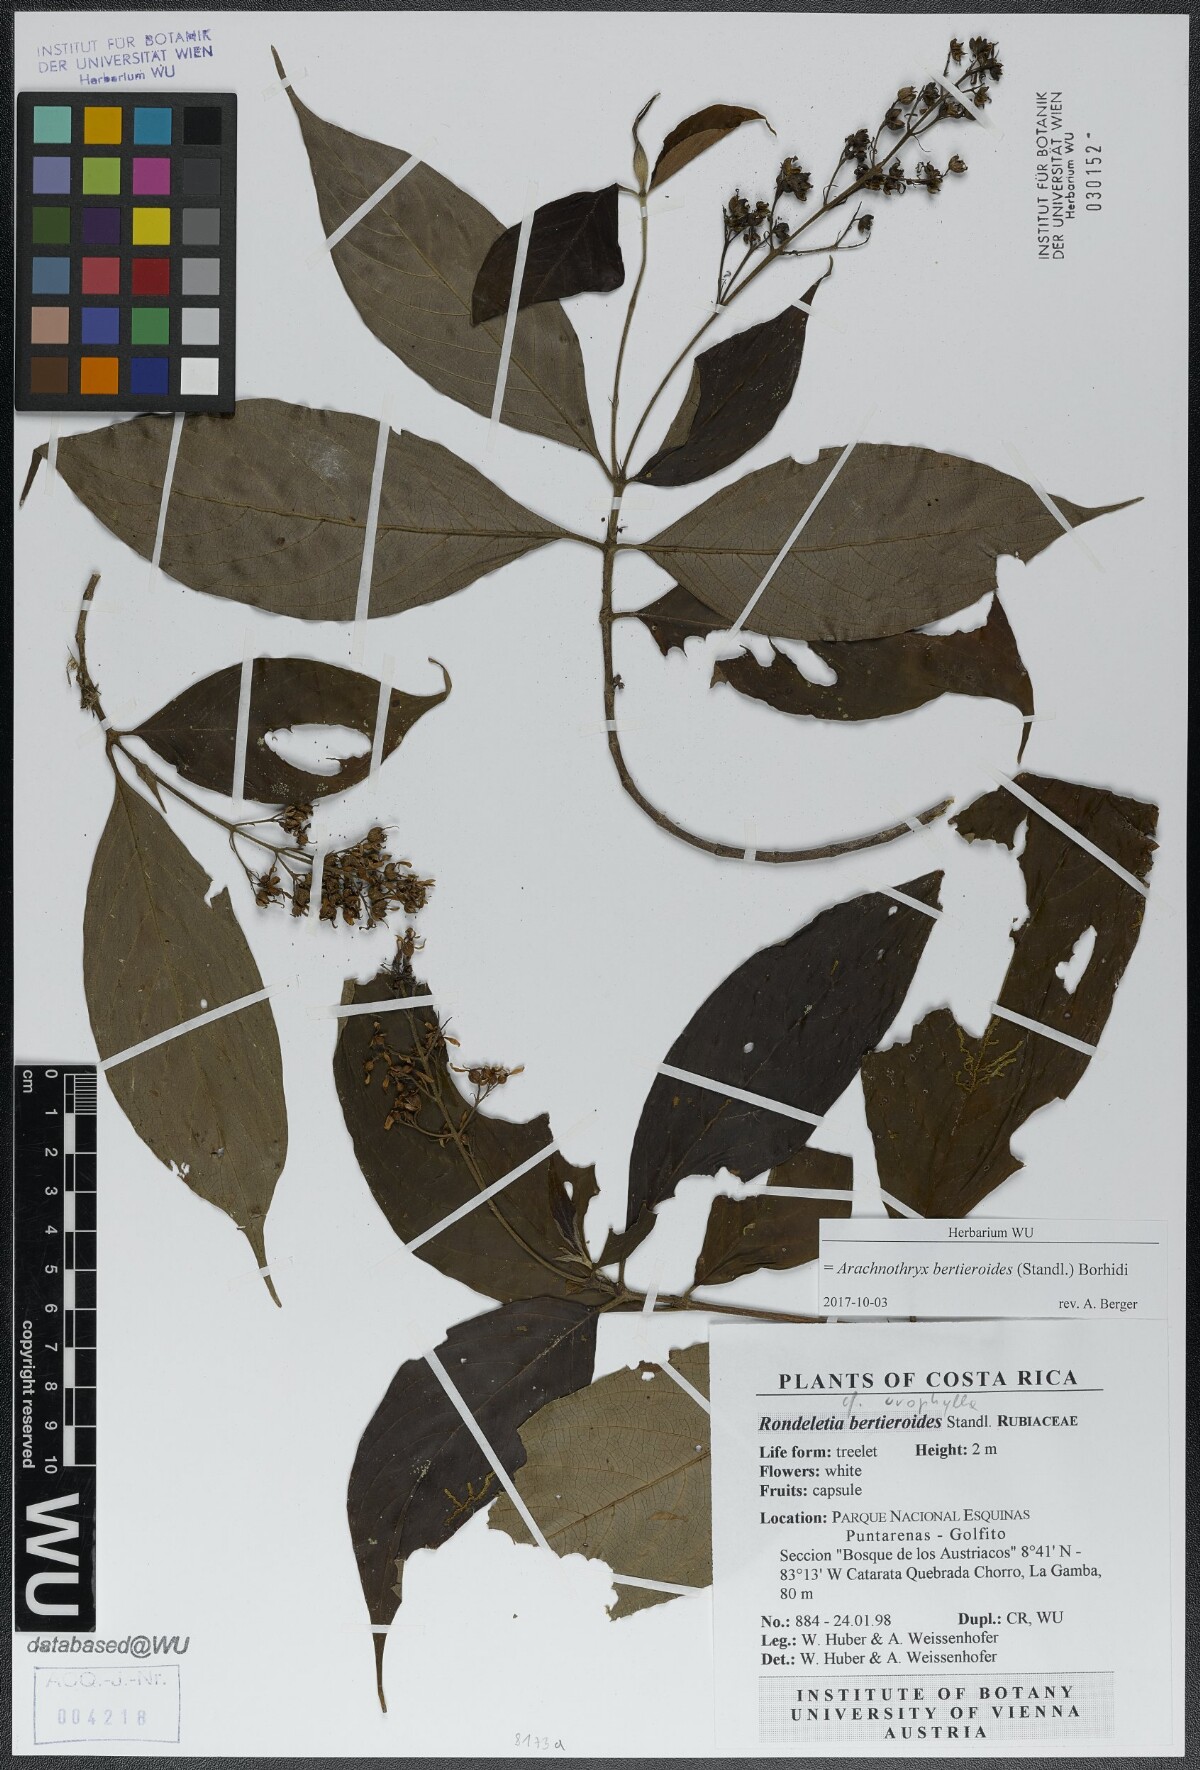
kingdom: Plantae
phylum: Tracheophyta
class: Magnoliopsida
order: Gentianales
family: Rubiaceae
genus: Arachnothryx
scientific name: Arachnothryx bertieroides
